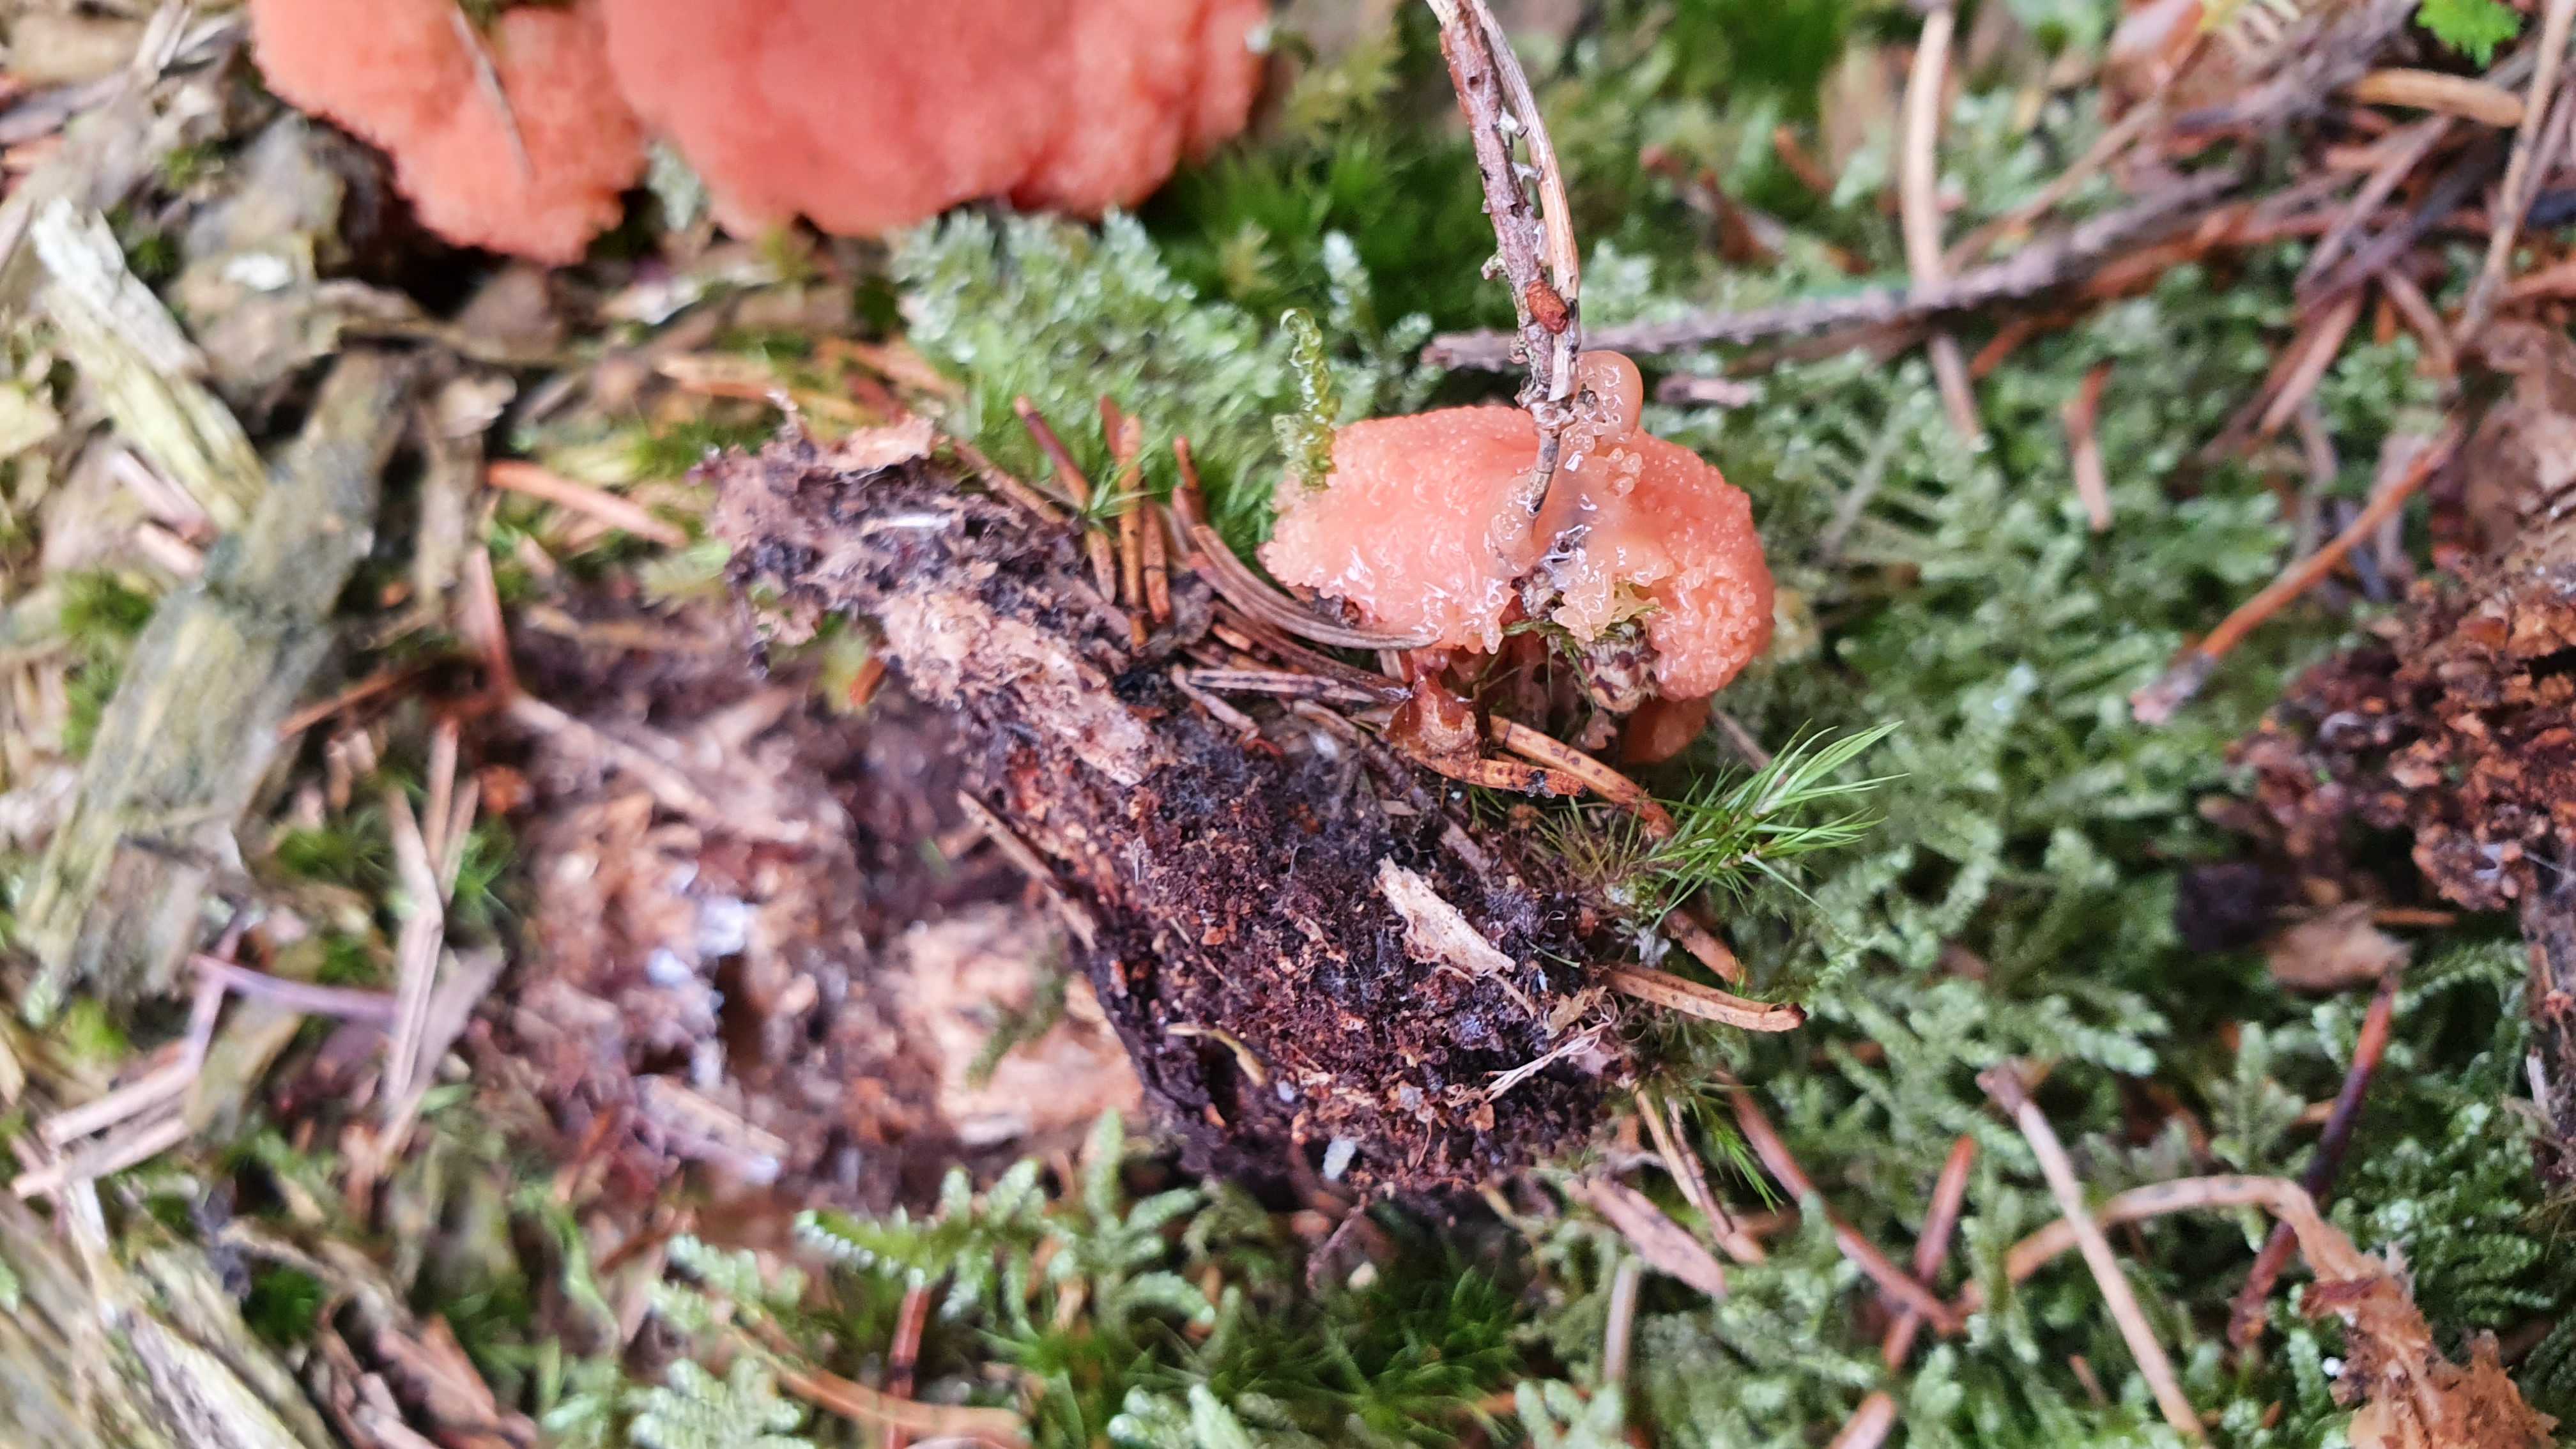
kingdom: Protozoa
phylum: Mycetozoa
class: Myxomycetes
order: Cribrariales
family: Tubiferaceae
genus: Tubifera
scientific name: Tubifera ferruginosa
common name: kanel-støvrør
